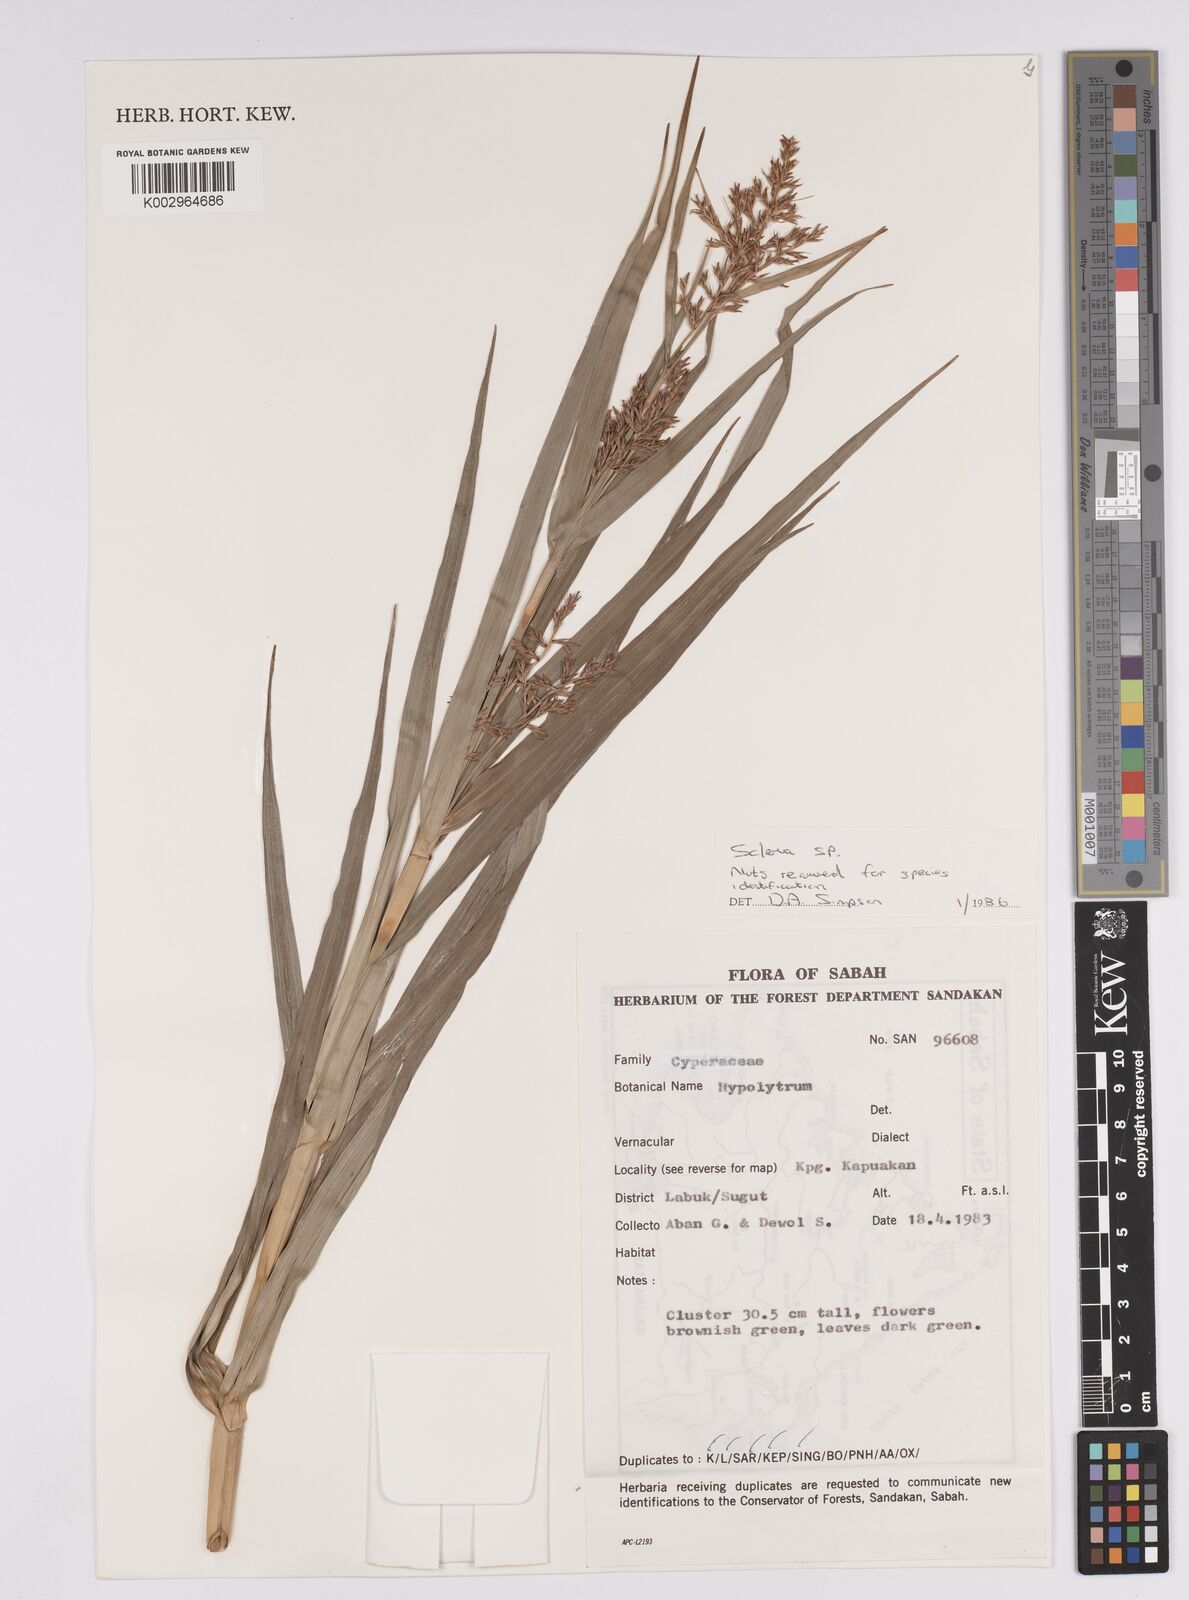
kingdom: Plantae
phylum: Tracheophyta
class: Liliopsida
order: Poales
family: Cyperaceae
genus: Scleria
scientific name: Scleria
